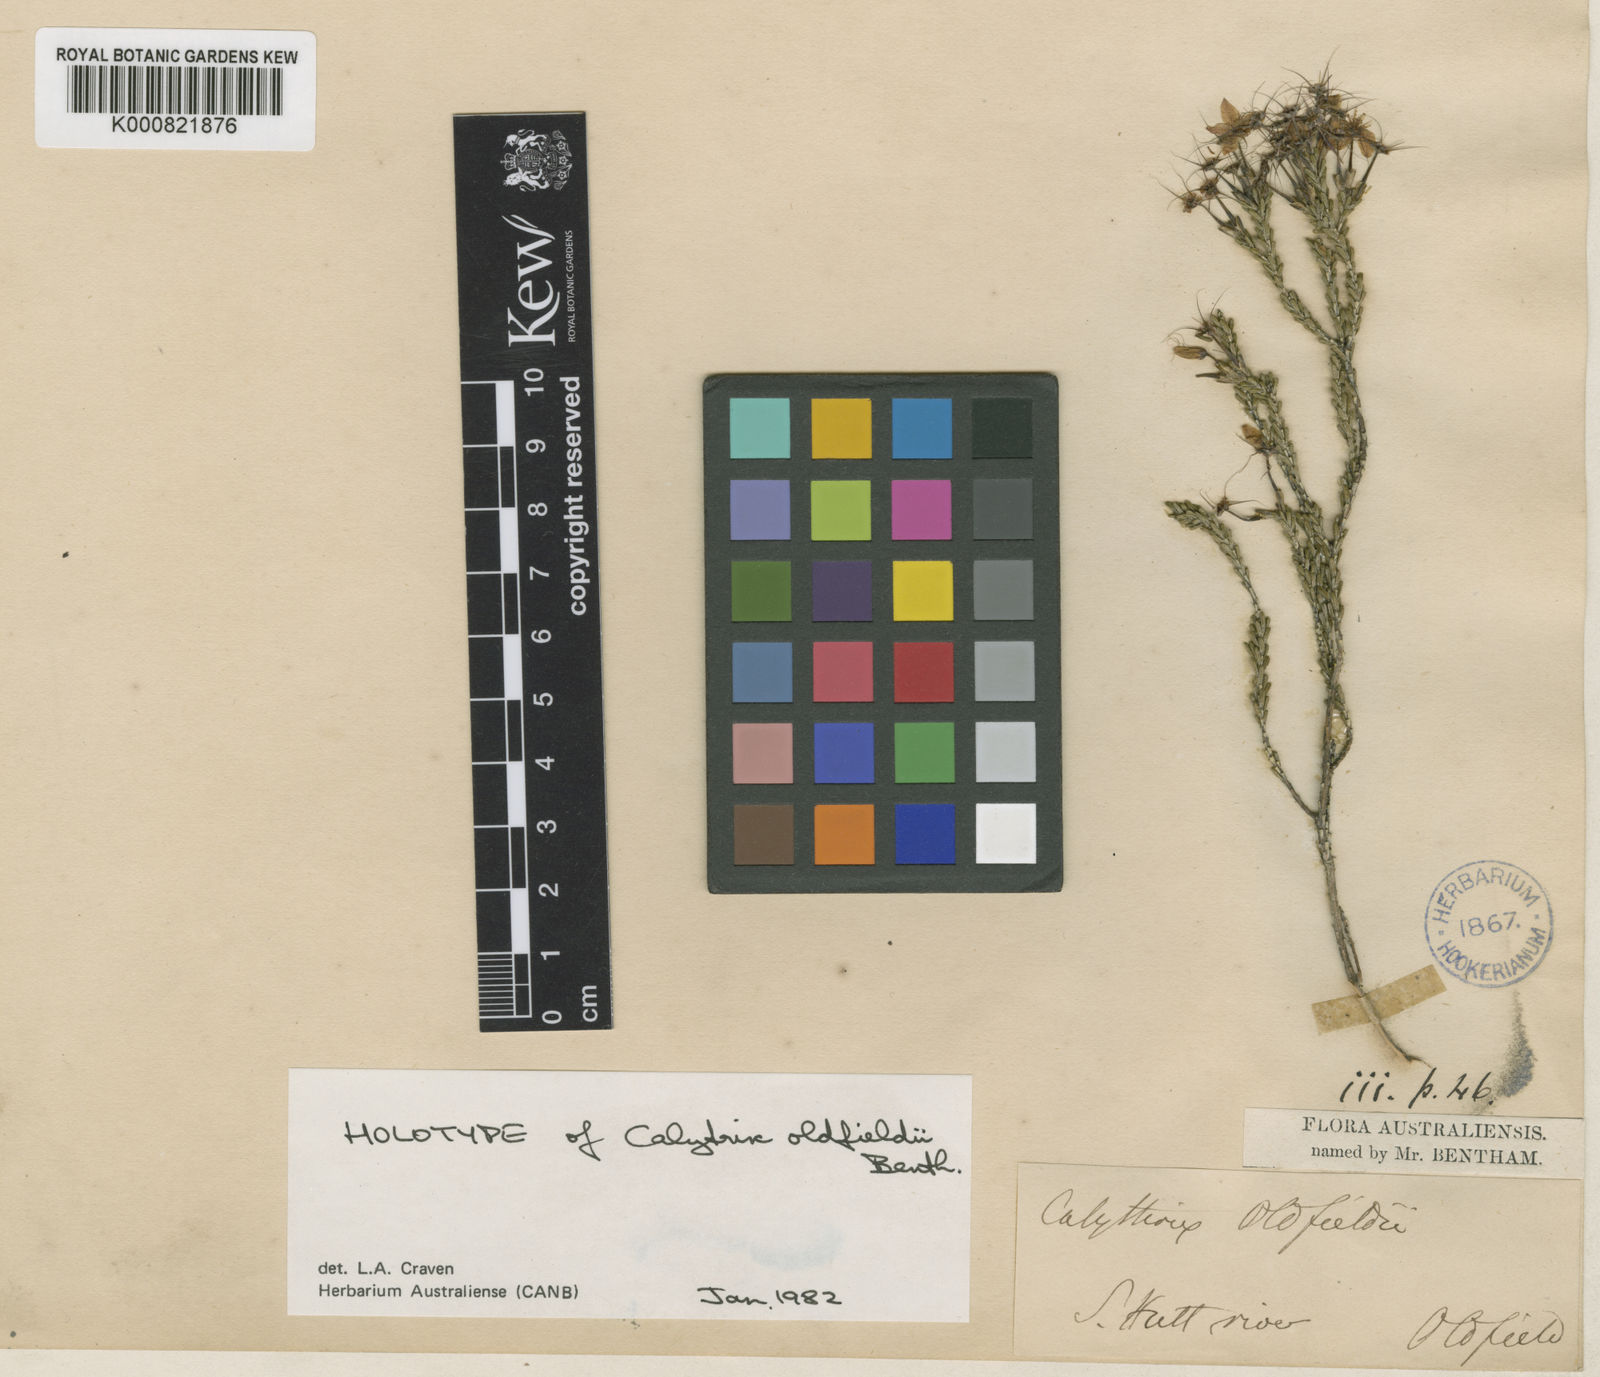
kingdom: Plantae
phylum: Tracheophyta
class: Magnoliopsida
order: Myrtales
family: Myrtaceae
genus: Calytrix
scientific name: Calytrix oldfieldii
